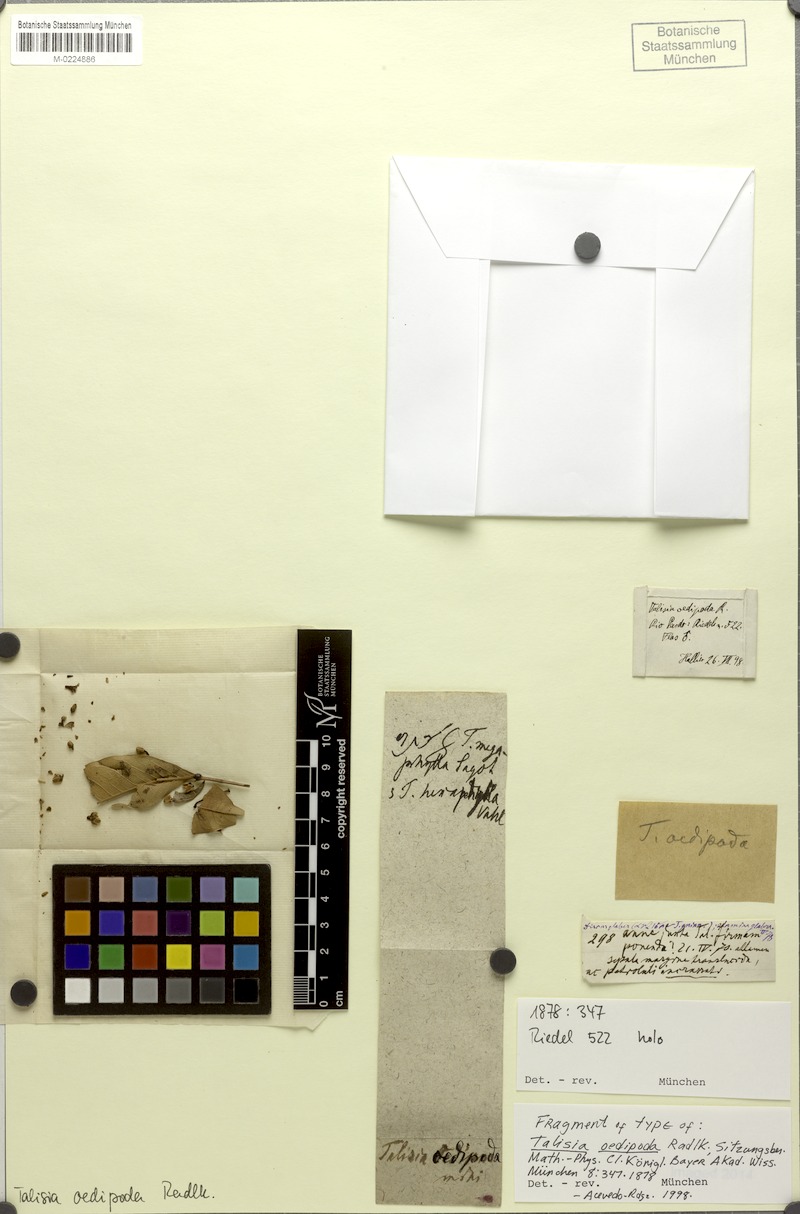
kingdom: Plantae
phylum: Tracheophyta
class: Magnoliopsida
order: Sapindales
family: Sapindaceae
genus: Talisia
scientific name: Talisia oedipoda
